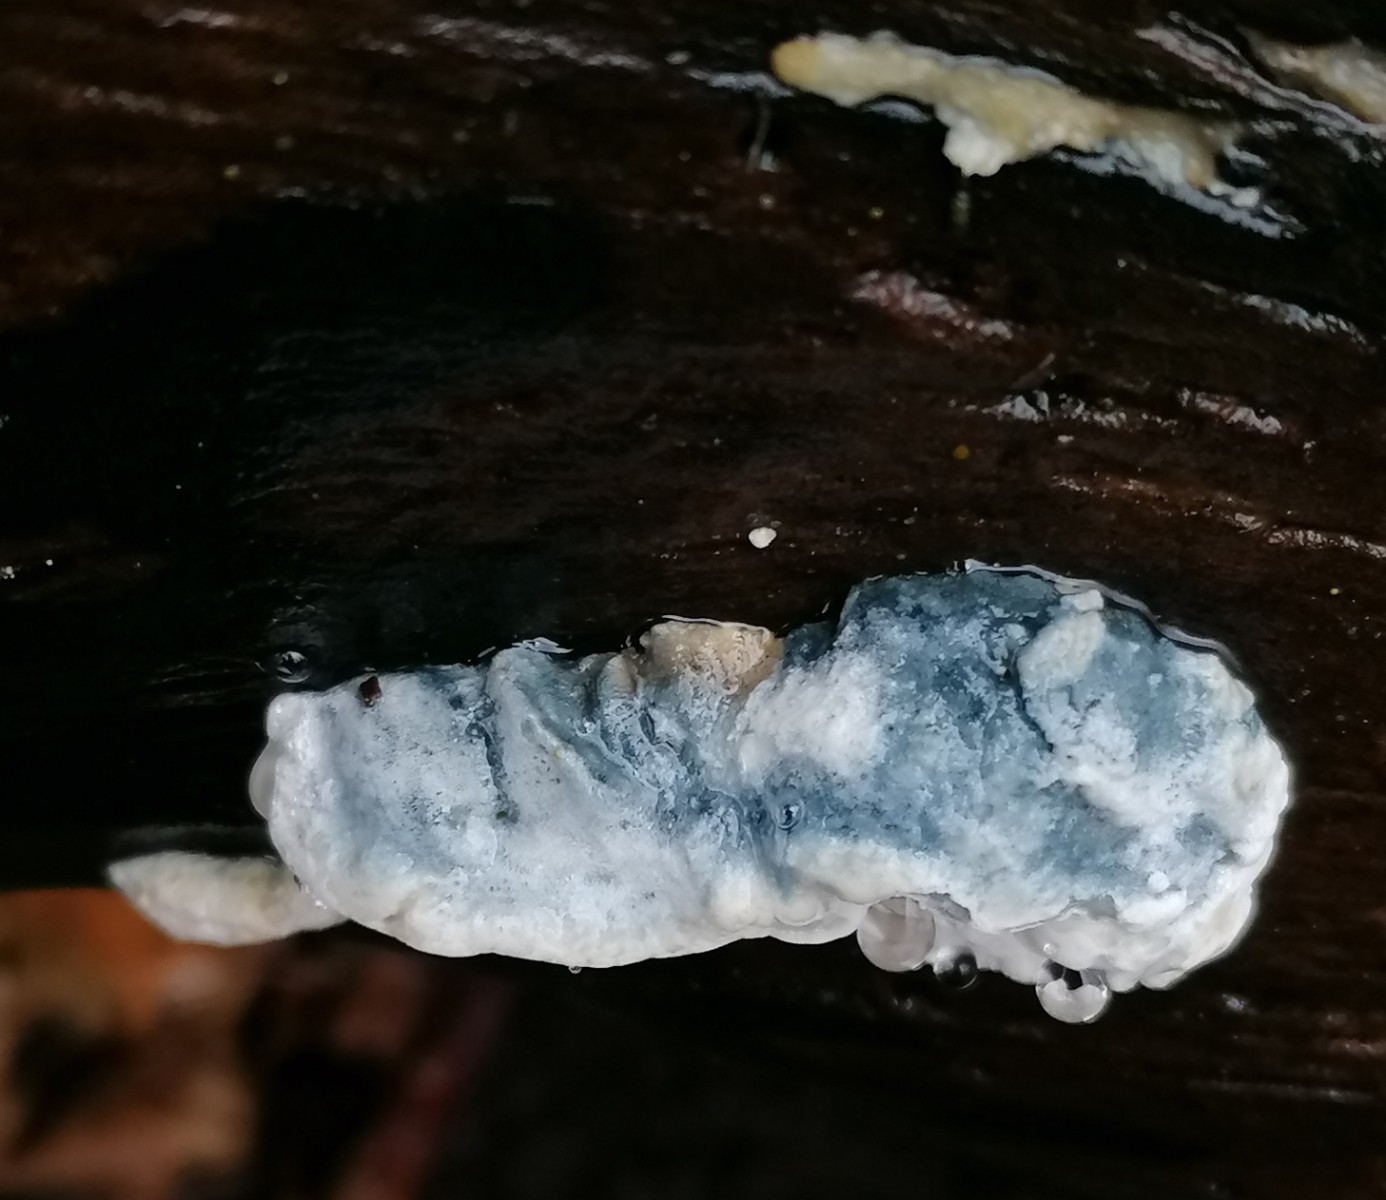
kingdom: Fungi
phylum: Basidiomycota
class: Agaricomycetes
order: Polyporales
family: Polyporaceae
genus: Cyanosporus
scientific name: Cyanosporus alni
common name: blegblå kødporesvamp
